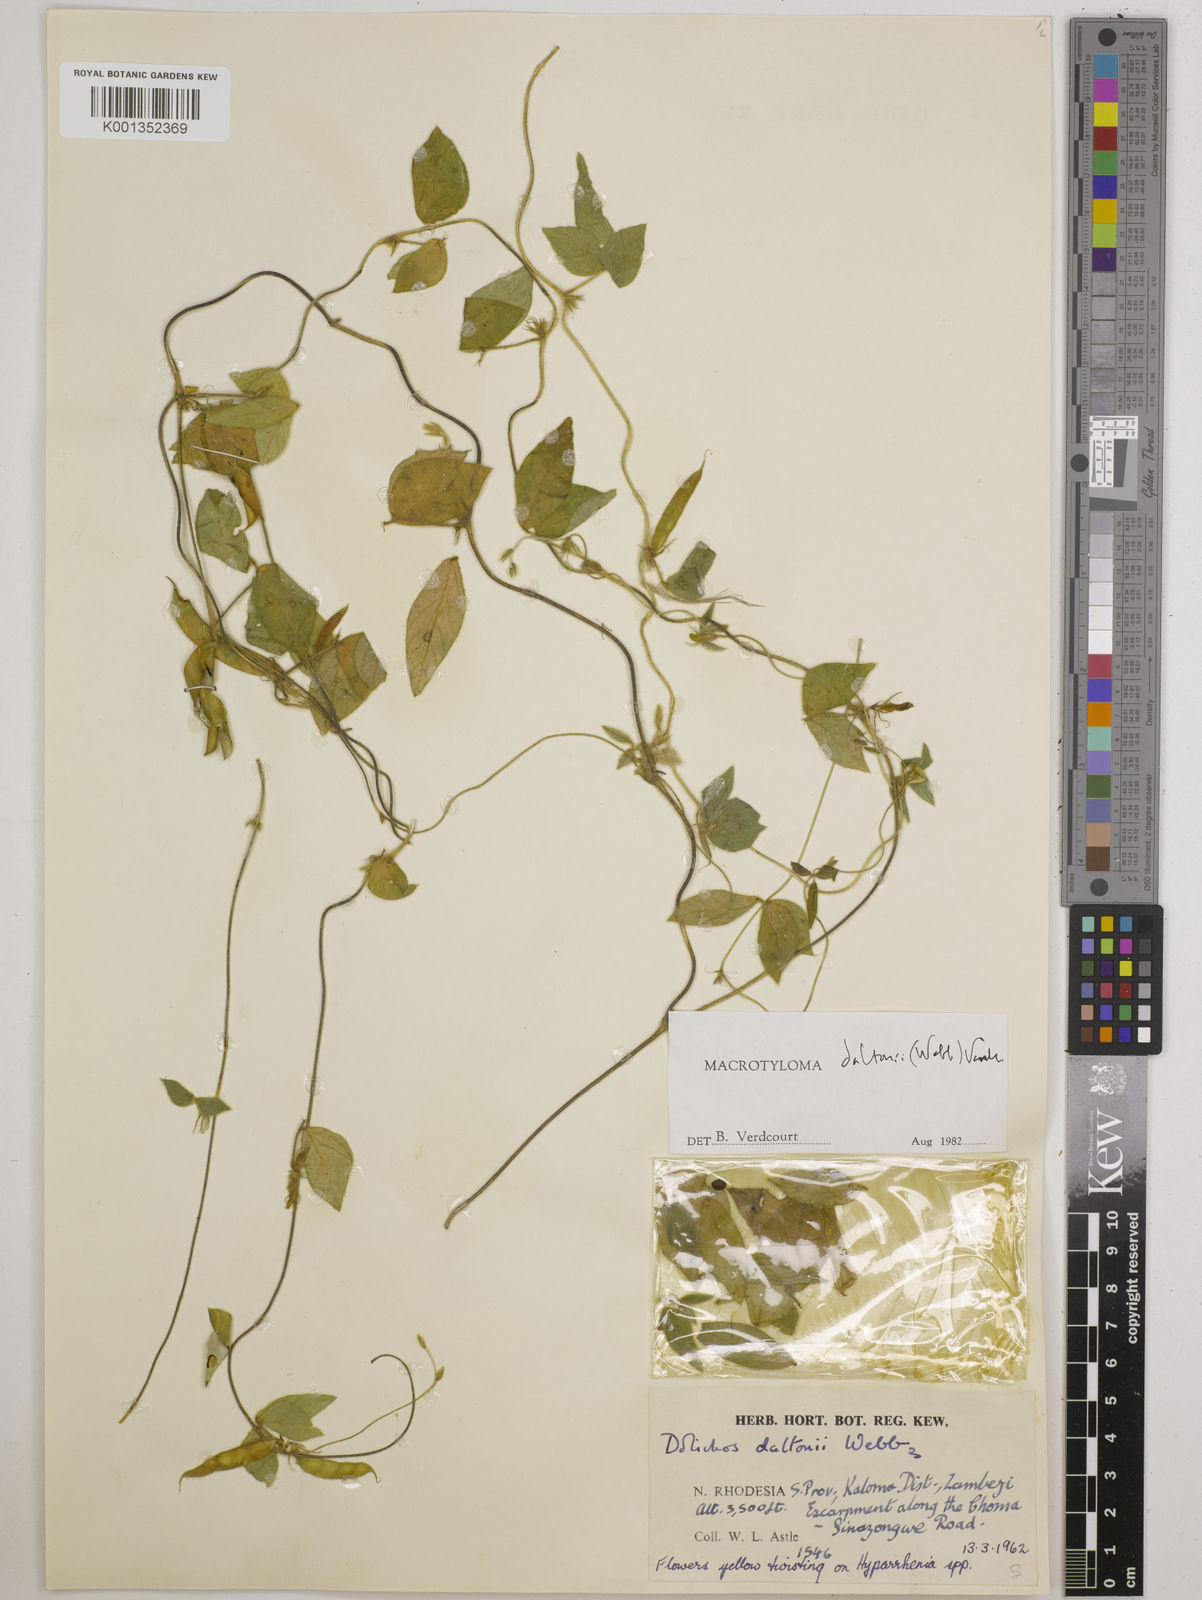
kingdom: Plantae
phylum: Tracheophyta
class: Magnoliopsida
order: Fabales
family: Fabaceae
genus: Macrotyloma
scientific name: Macrotyloma daltonii
